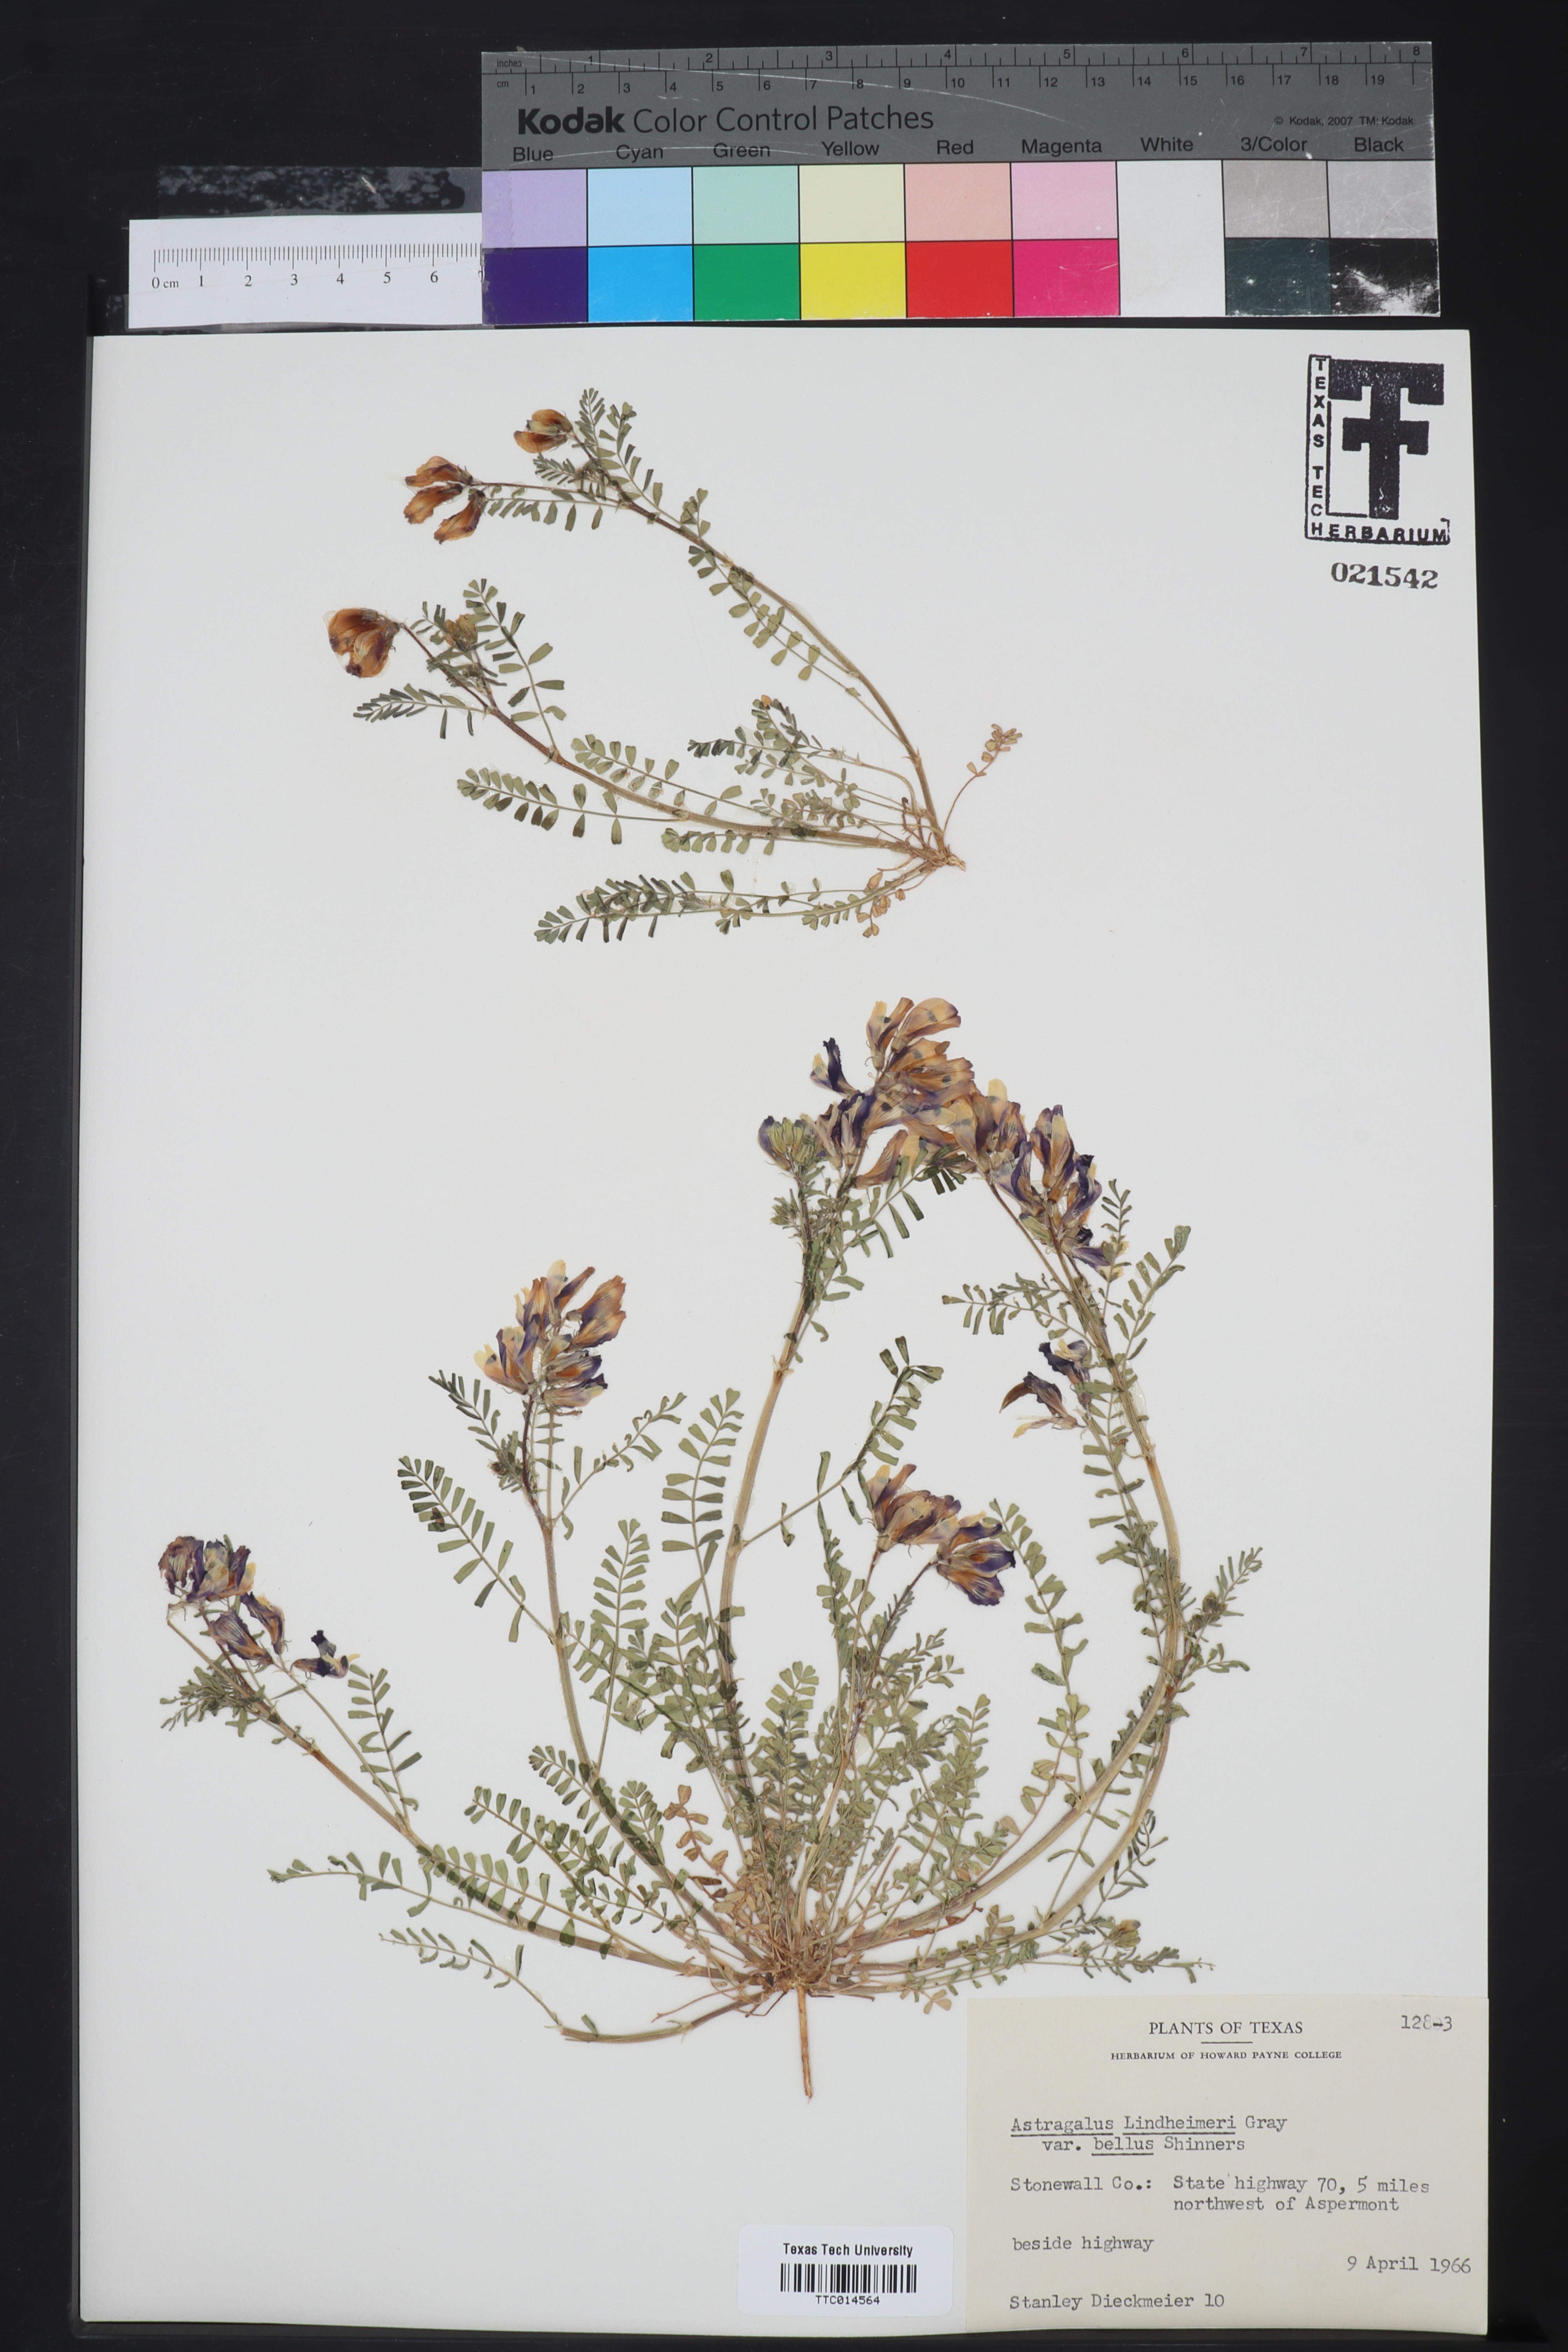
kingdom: Plantae
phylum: Tracheophyta
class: Magnoliopsida
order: Fabales
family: Fabaceae
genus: Astragalus
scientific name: Astragalus lindheimeri
